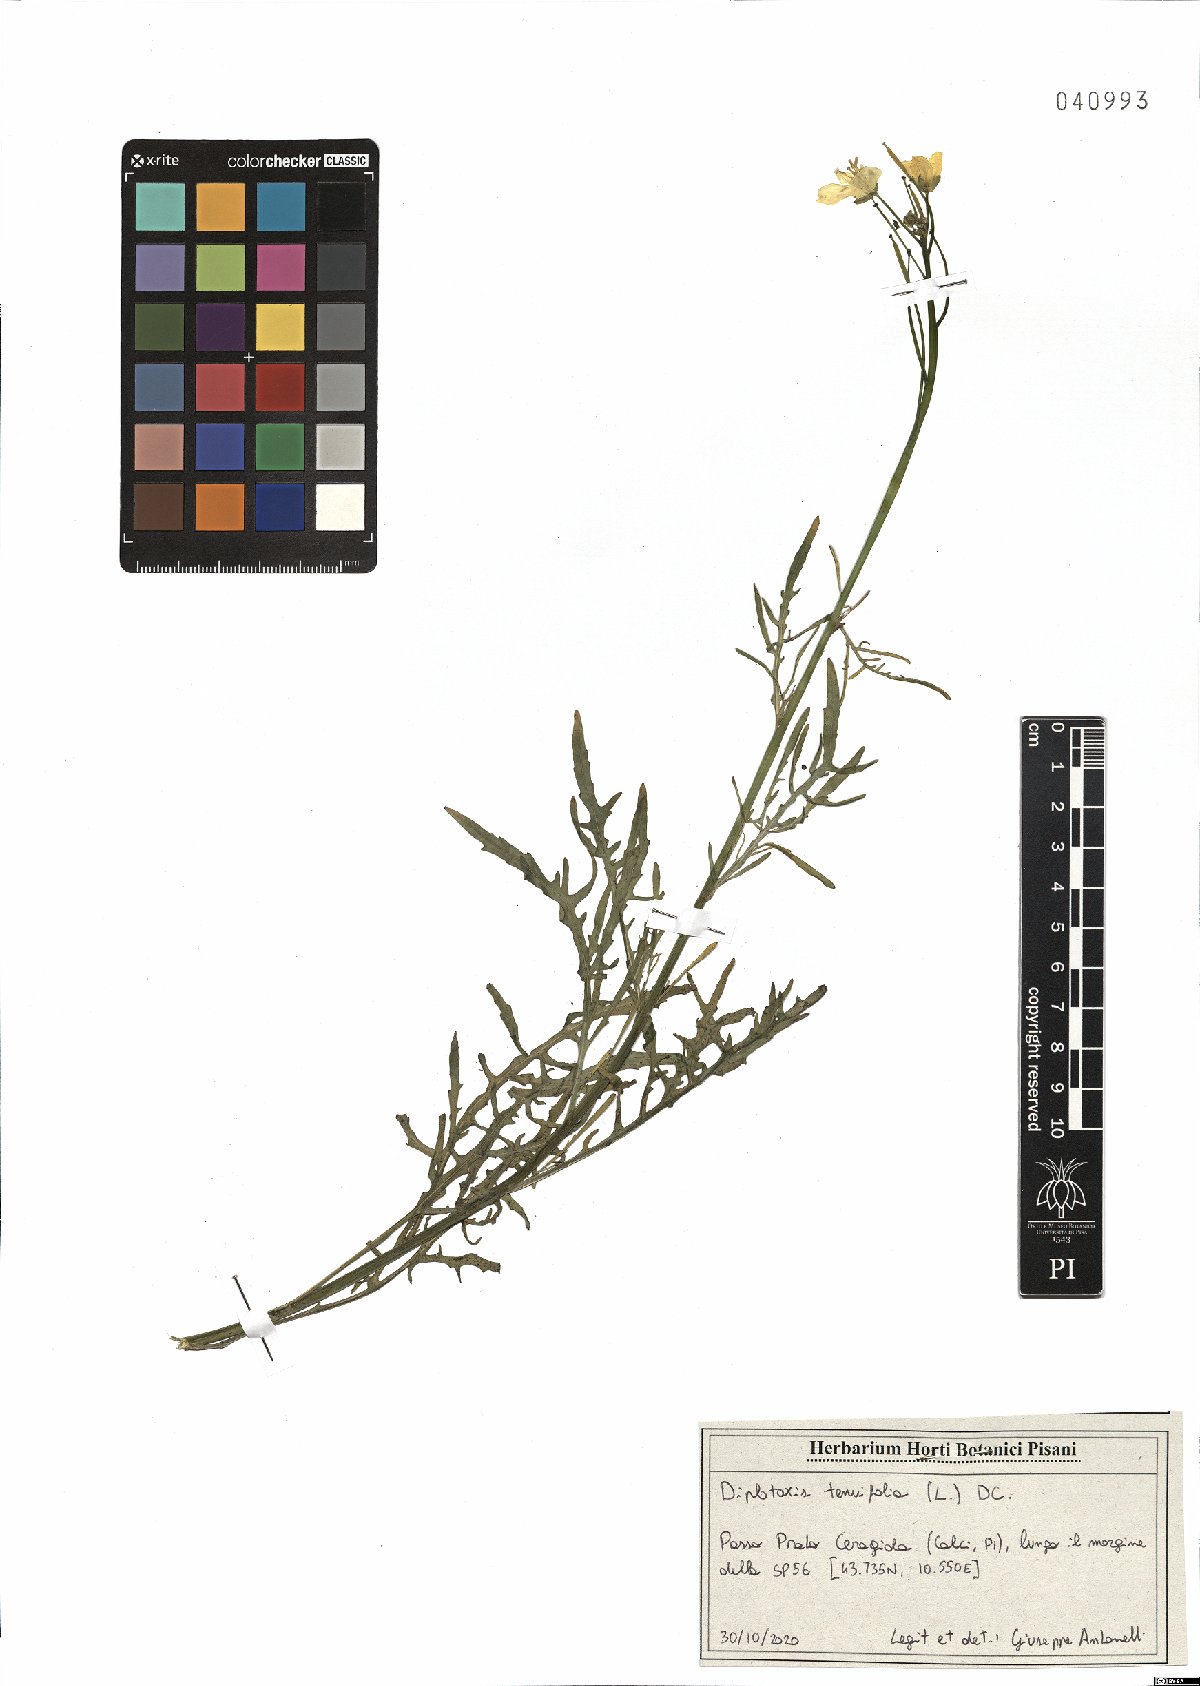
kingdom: Plantae
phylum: Tracheophyta
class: Magnoliopsida
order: Brassicales
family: Brassicaceae
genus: Diplotaxis
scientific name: Diplotaxis tenuifolia
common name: Perennial wall-rocket
